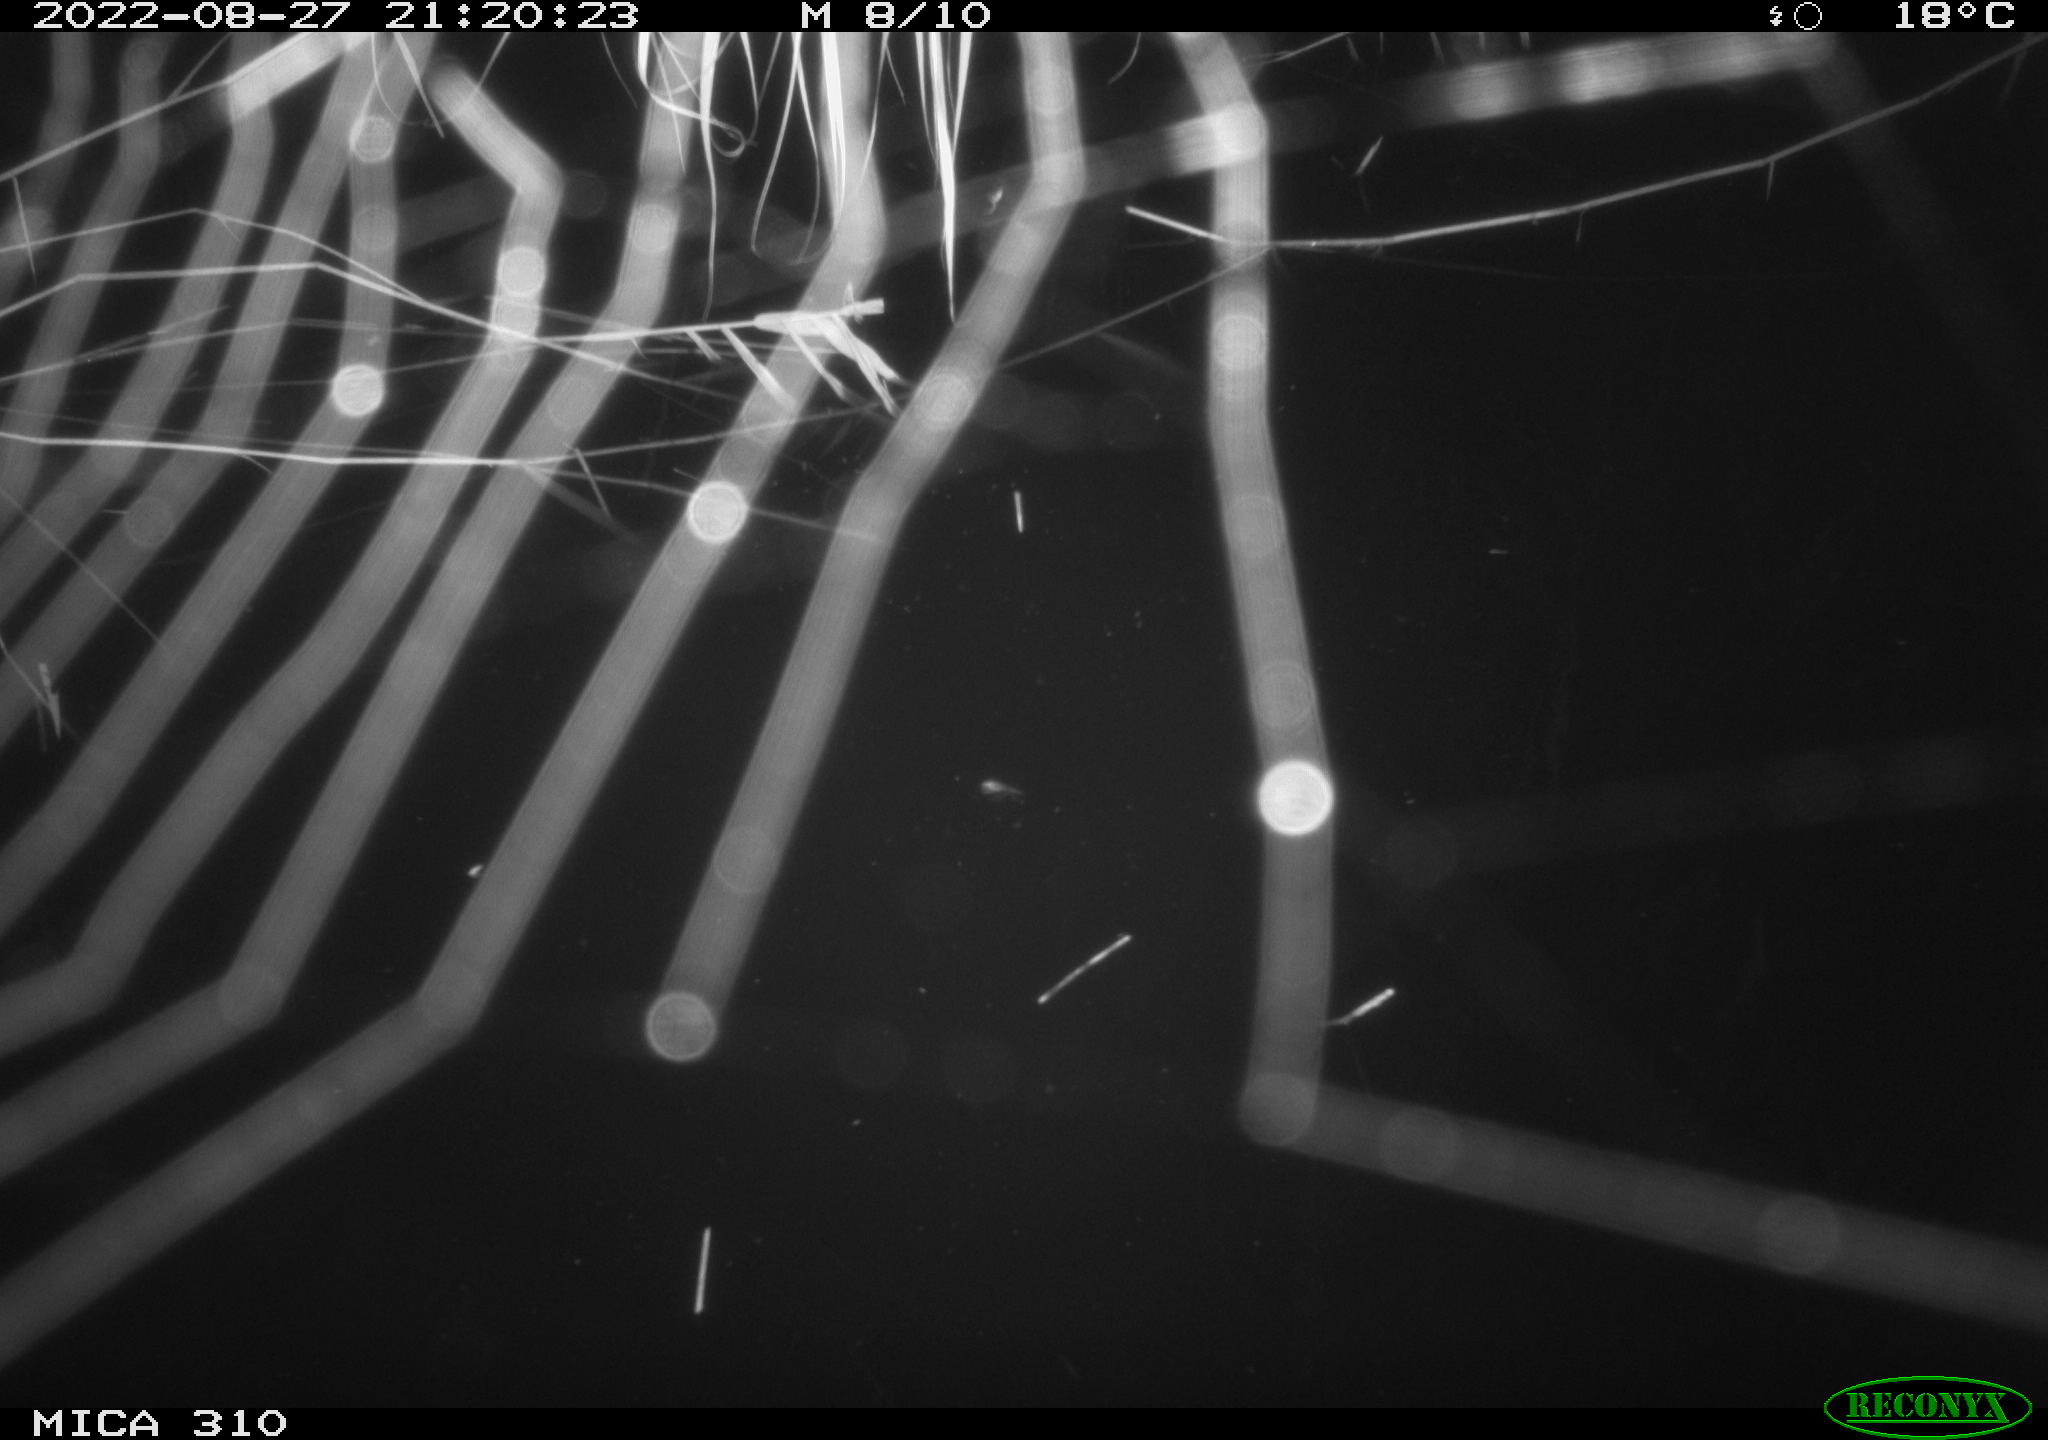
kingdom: Animalia
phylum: Chordata
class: Aves
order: Anseriformes
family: Anatidae
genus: Anas
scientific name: Anas platyrhynchos
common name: Mallard
